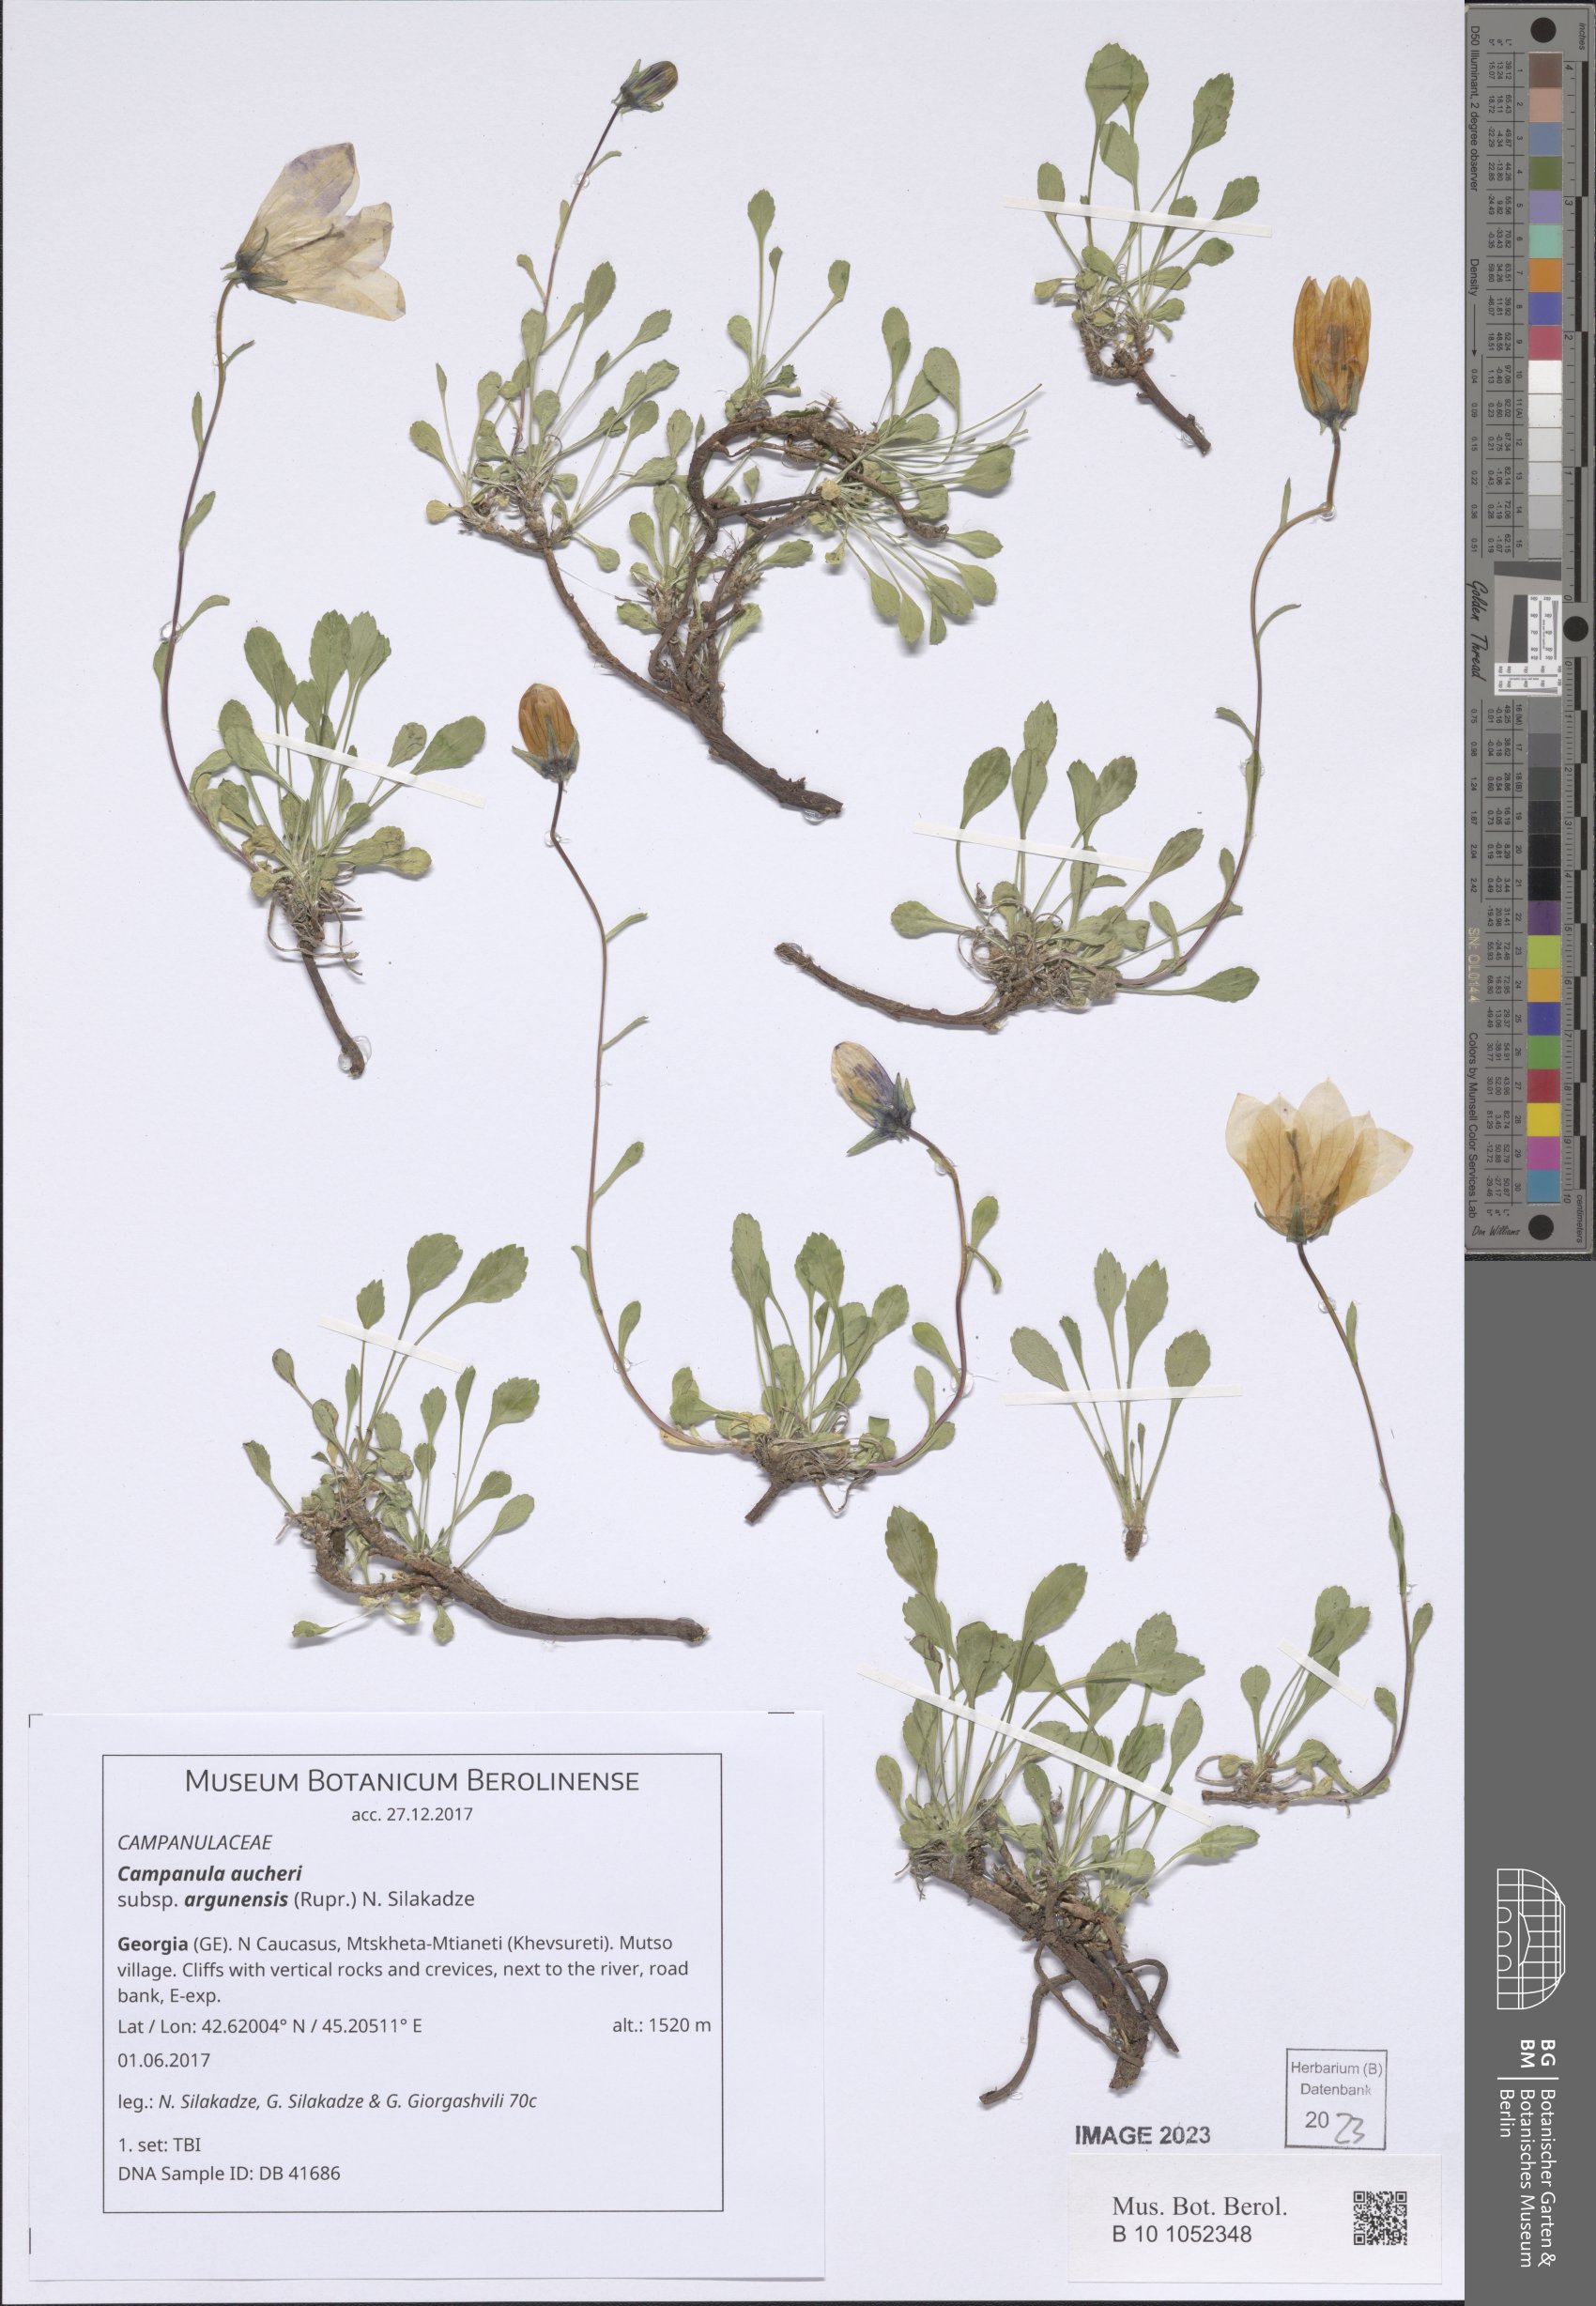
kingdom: Plantae
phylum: Tracheophyta
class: Magnoliopsida
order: Asterales
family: Campanulaceae
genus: Campanula
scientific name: Campanula saxifraga
